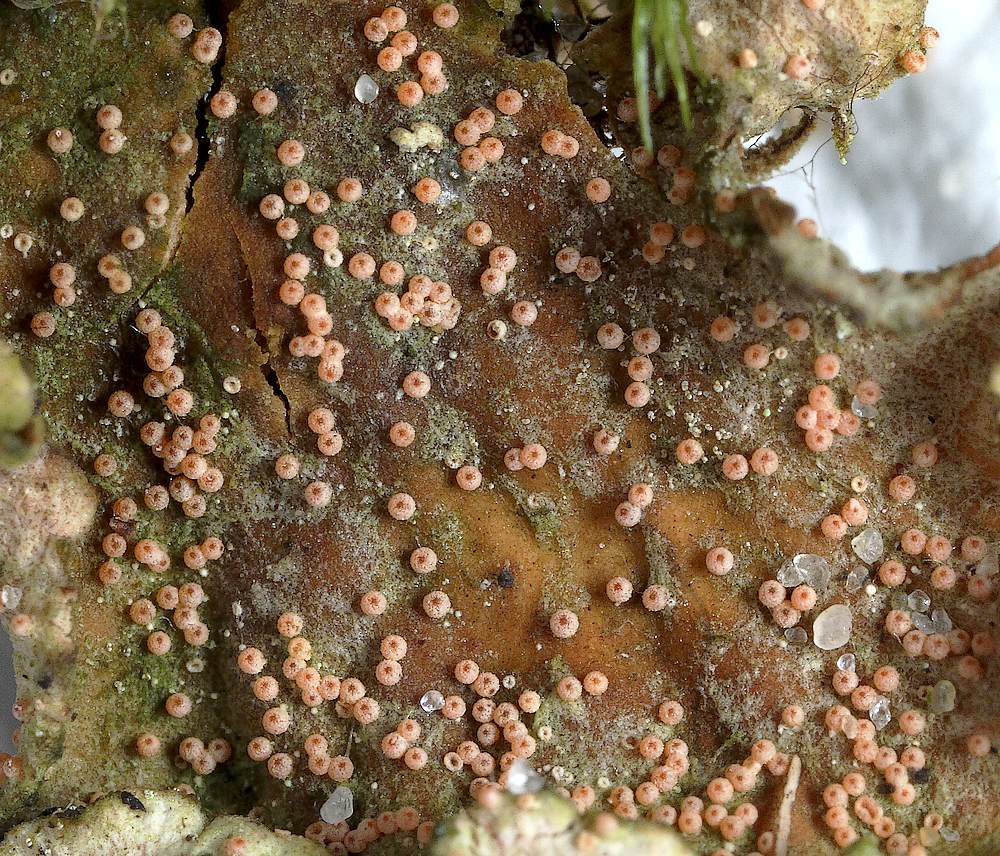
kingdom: Fungi
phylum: Ascomycota
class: Sordariomycetes
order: Hypocreales
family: Bionectriaceae
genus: Nectriopsis
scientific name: Nectriopsis lecanodes
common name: skjoldlav-gyldenkerne
